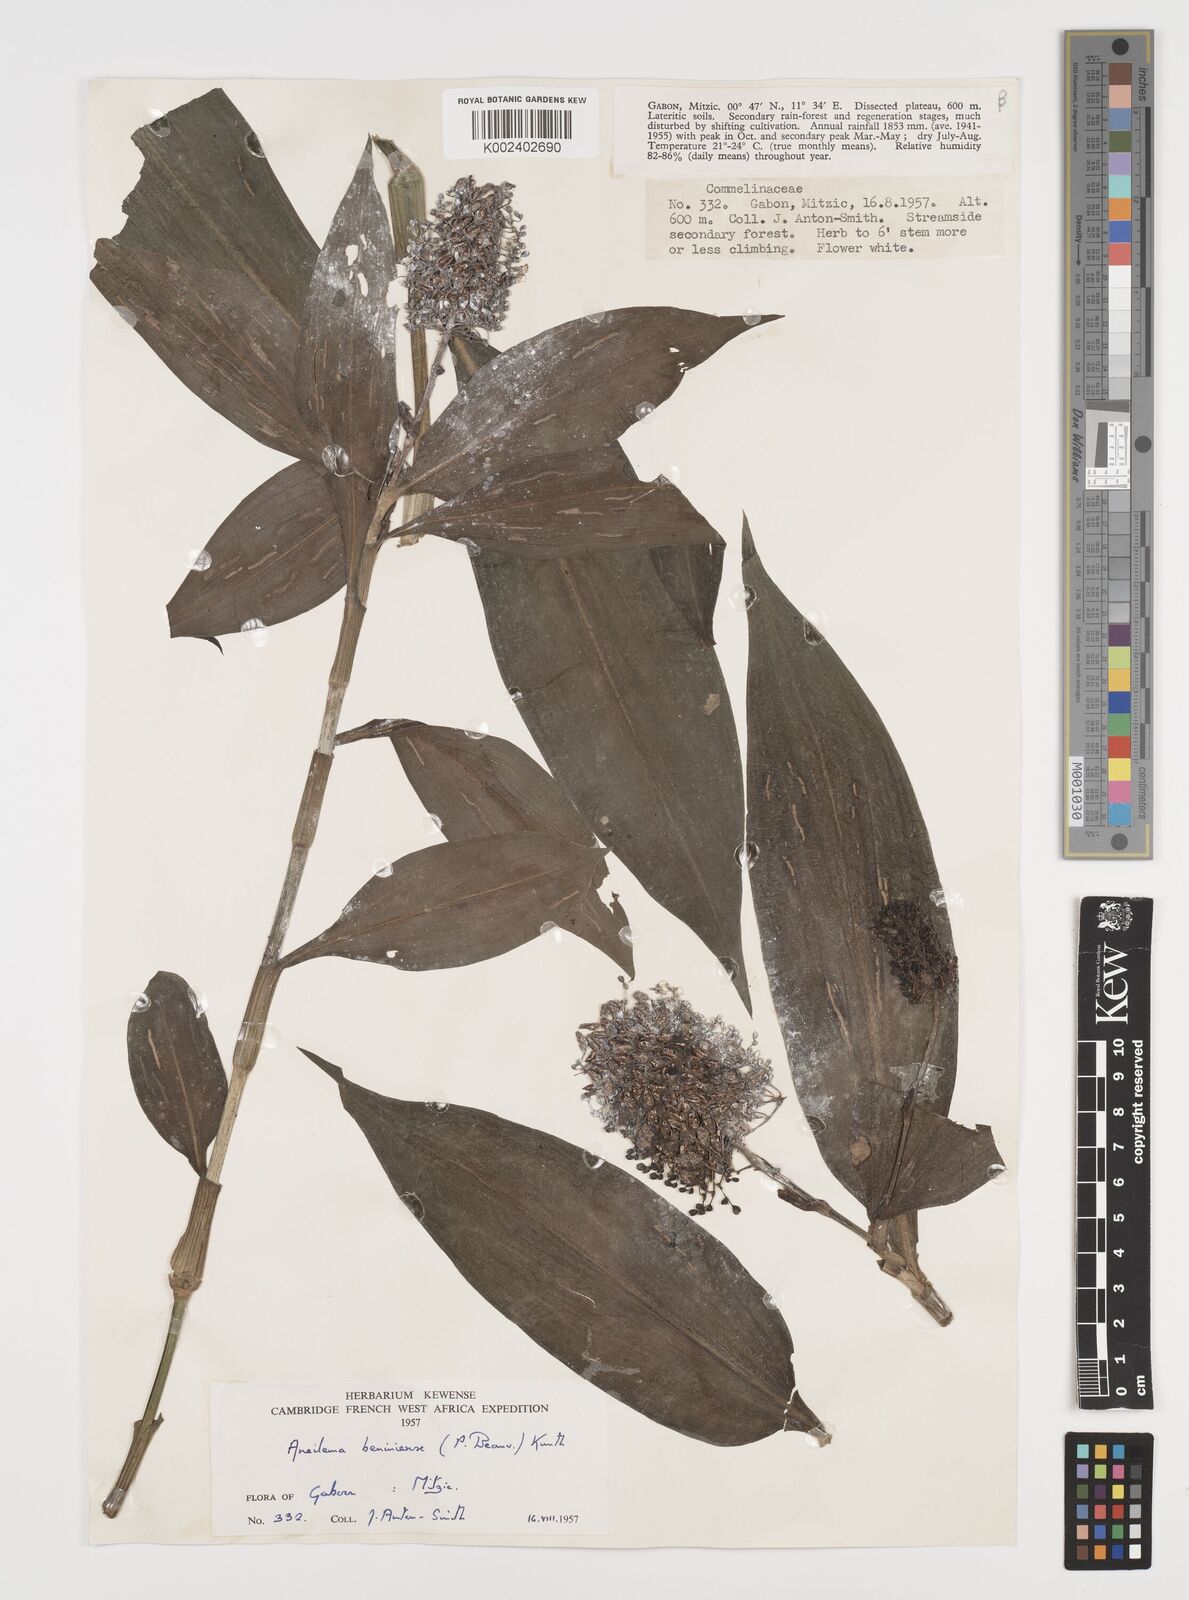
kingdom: Plantae
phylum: Tracheophyta
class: Liliopsida
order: Commelinales
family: Commelinaceae
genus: Aneilema
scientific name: Aneilema beniniense
